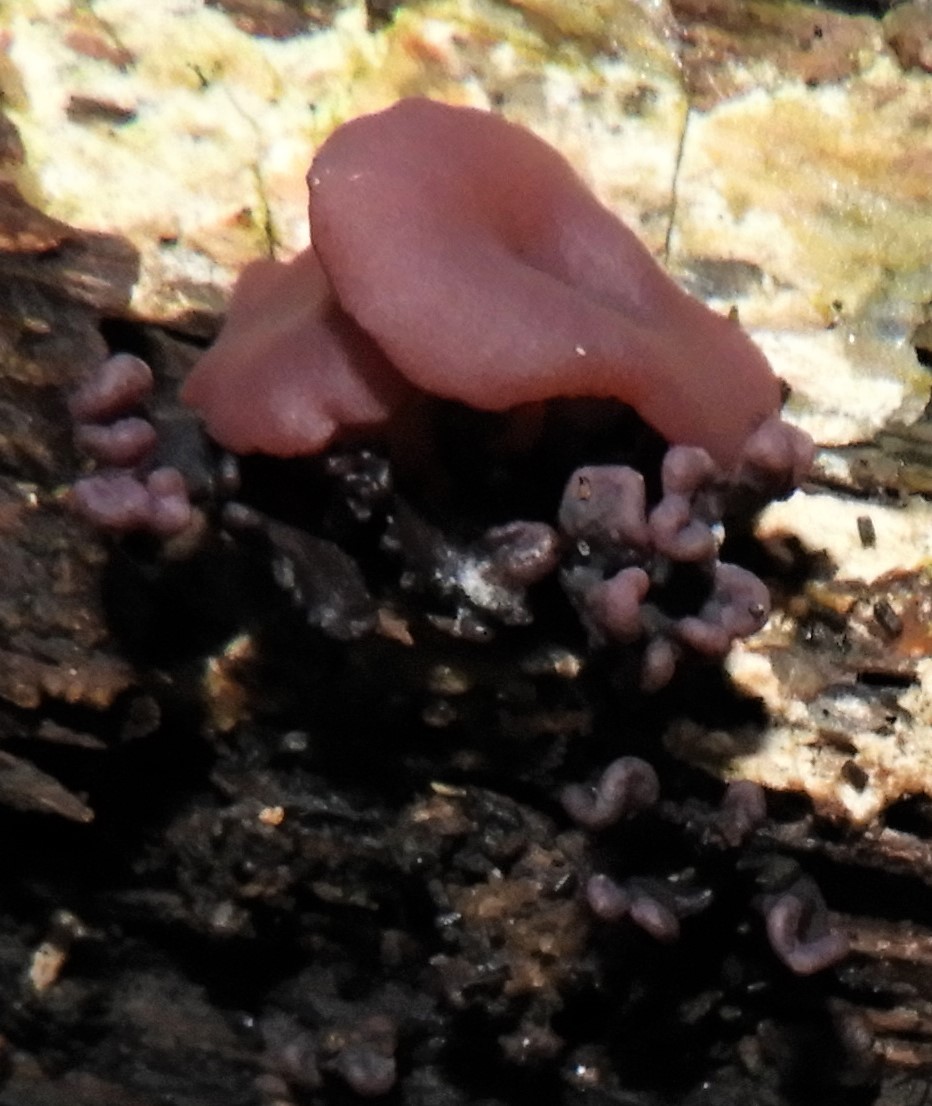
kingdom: Fungi
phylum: Ascomycota
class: Leotiomycetes
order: Helotiales
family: Gelatinodiscaceae
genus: Ascocoryne
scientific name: Ascocoryne cylichnium
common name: stor sejskive
